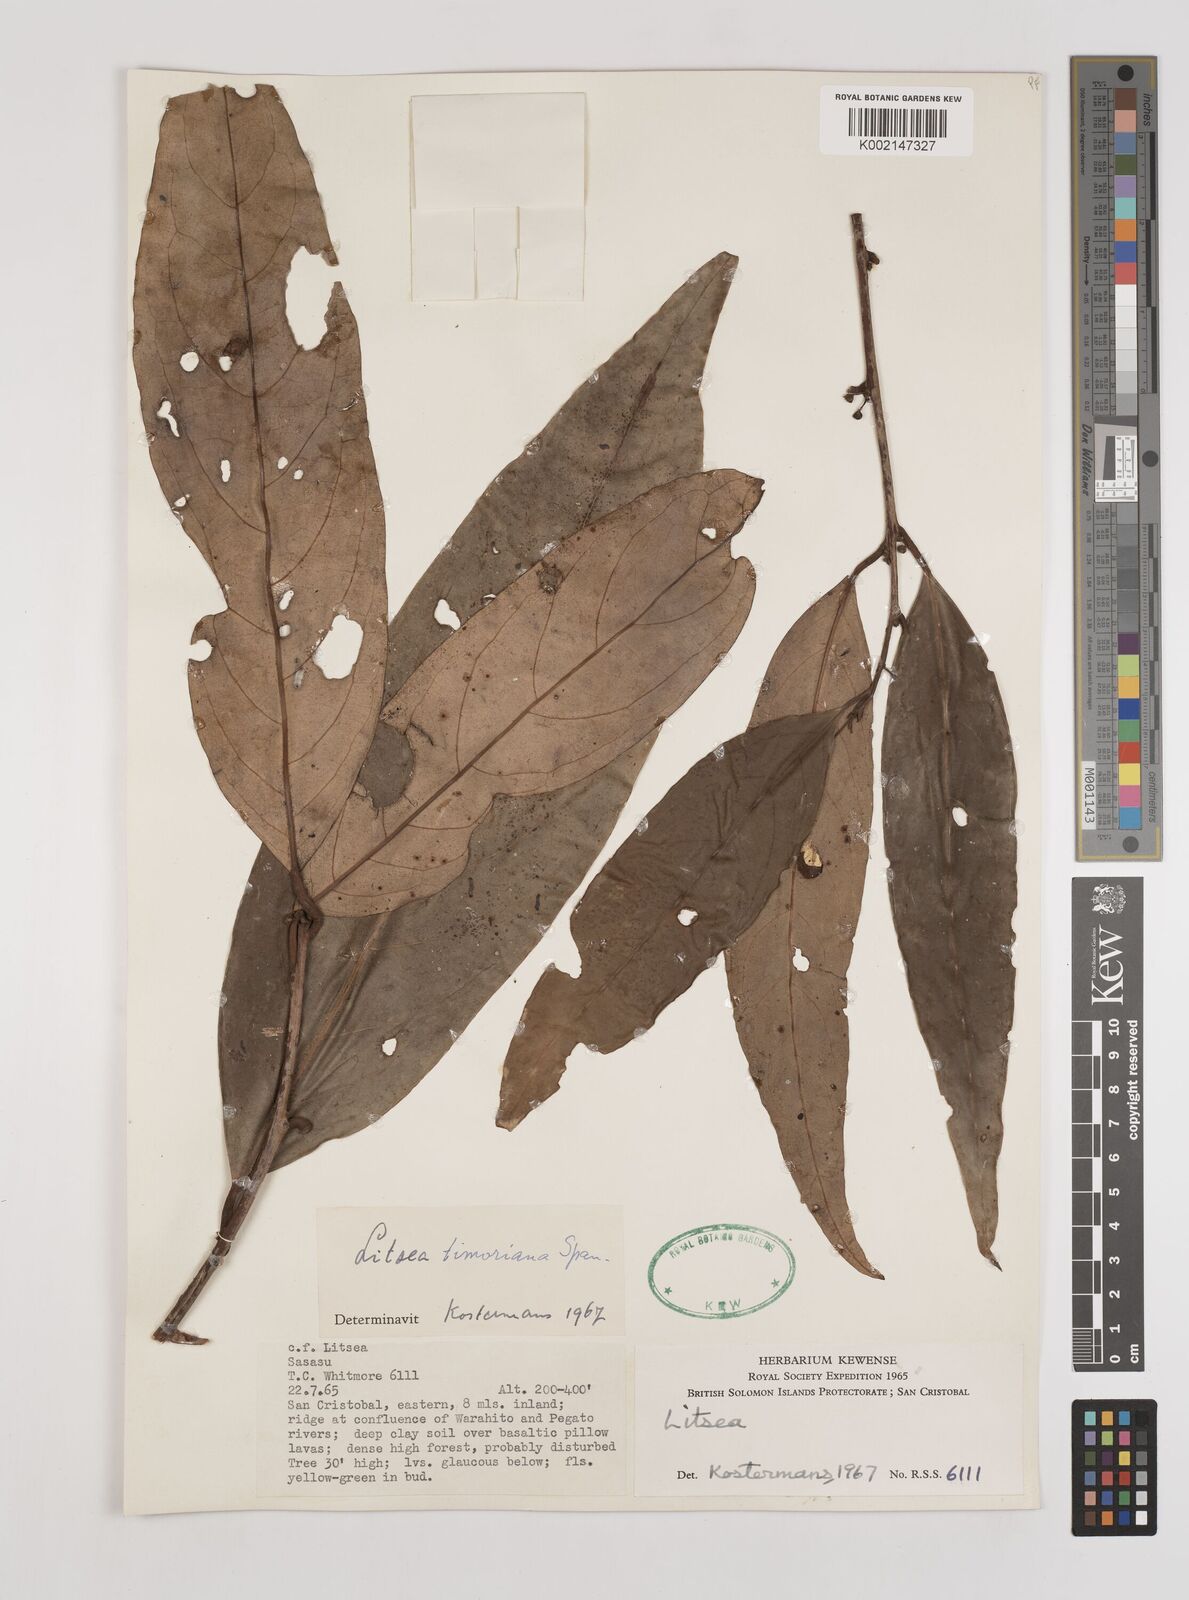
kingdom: Plantae
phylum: Tracheophyta
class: Magnoliopsida
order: Laurales
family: Lauraceae
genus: Litsea
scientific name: Litsea timoriana
